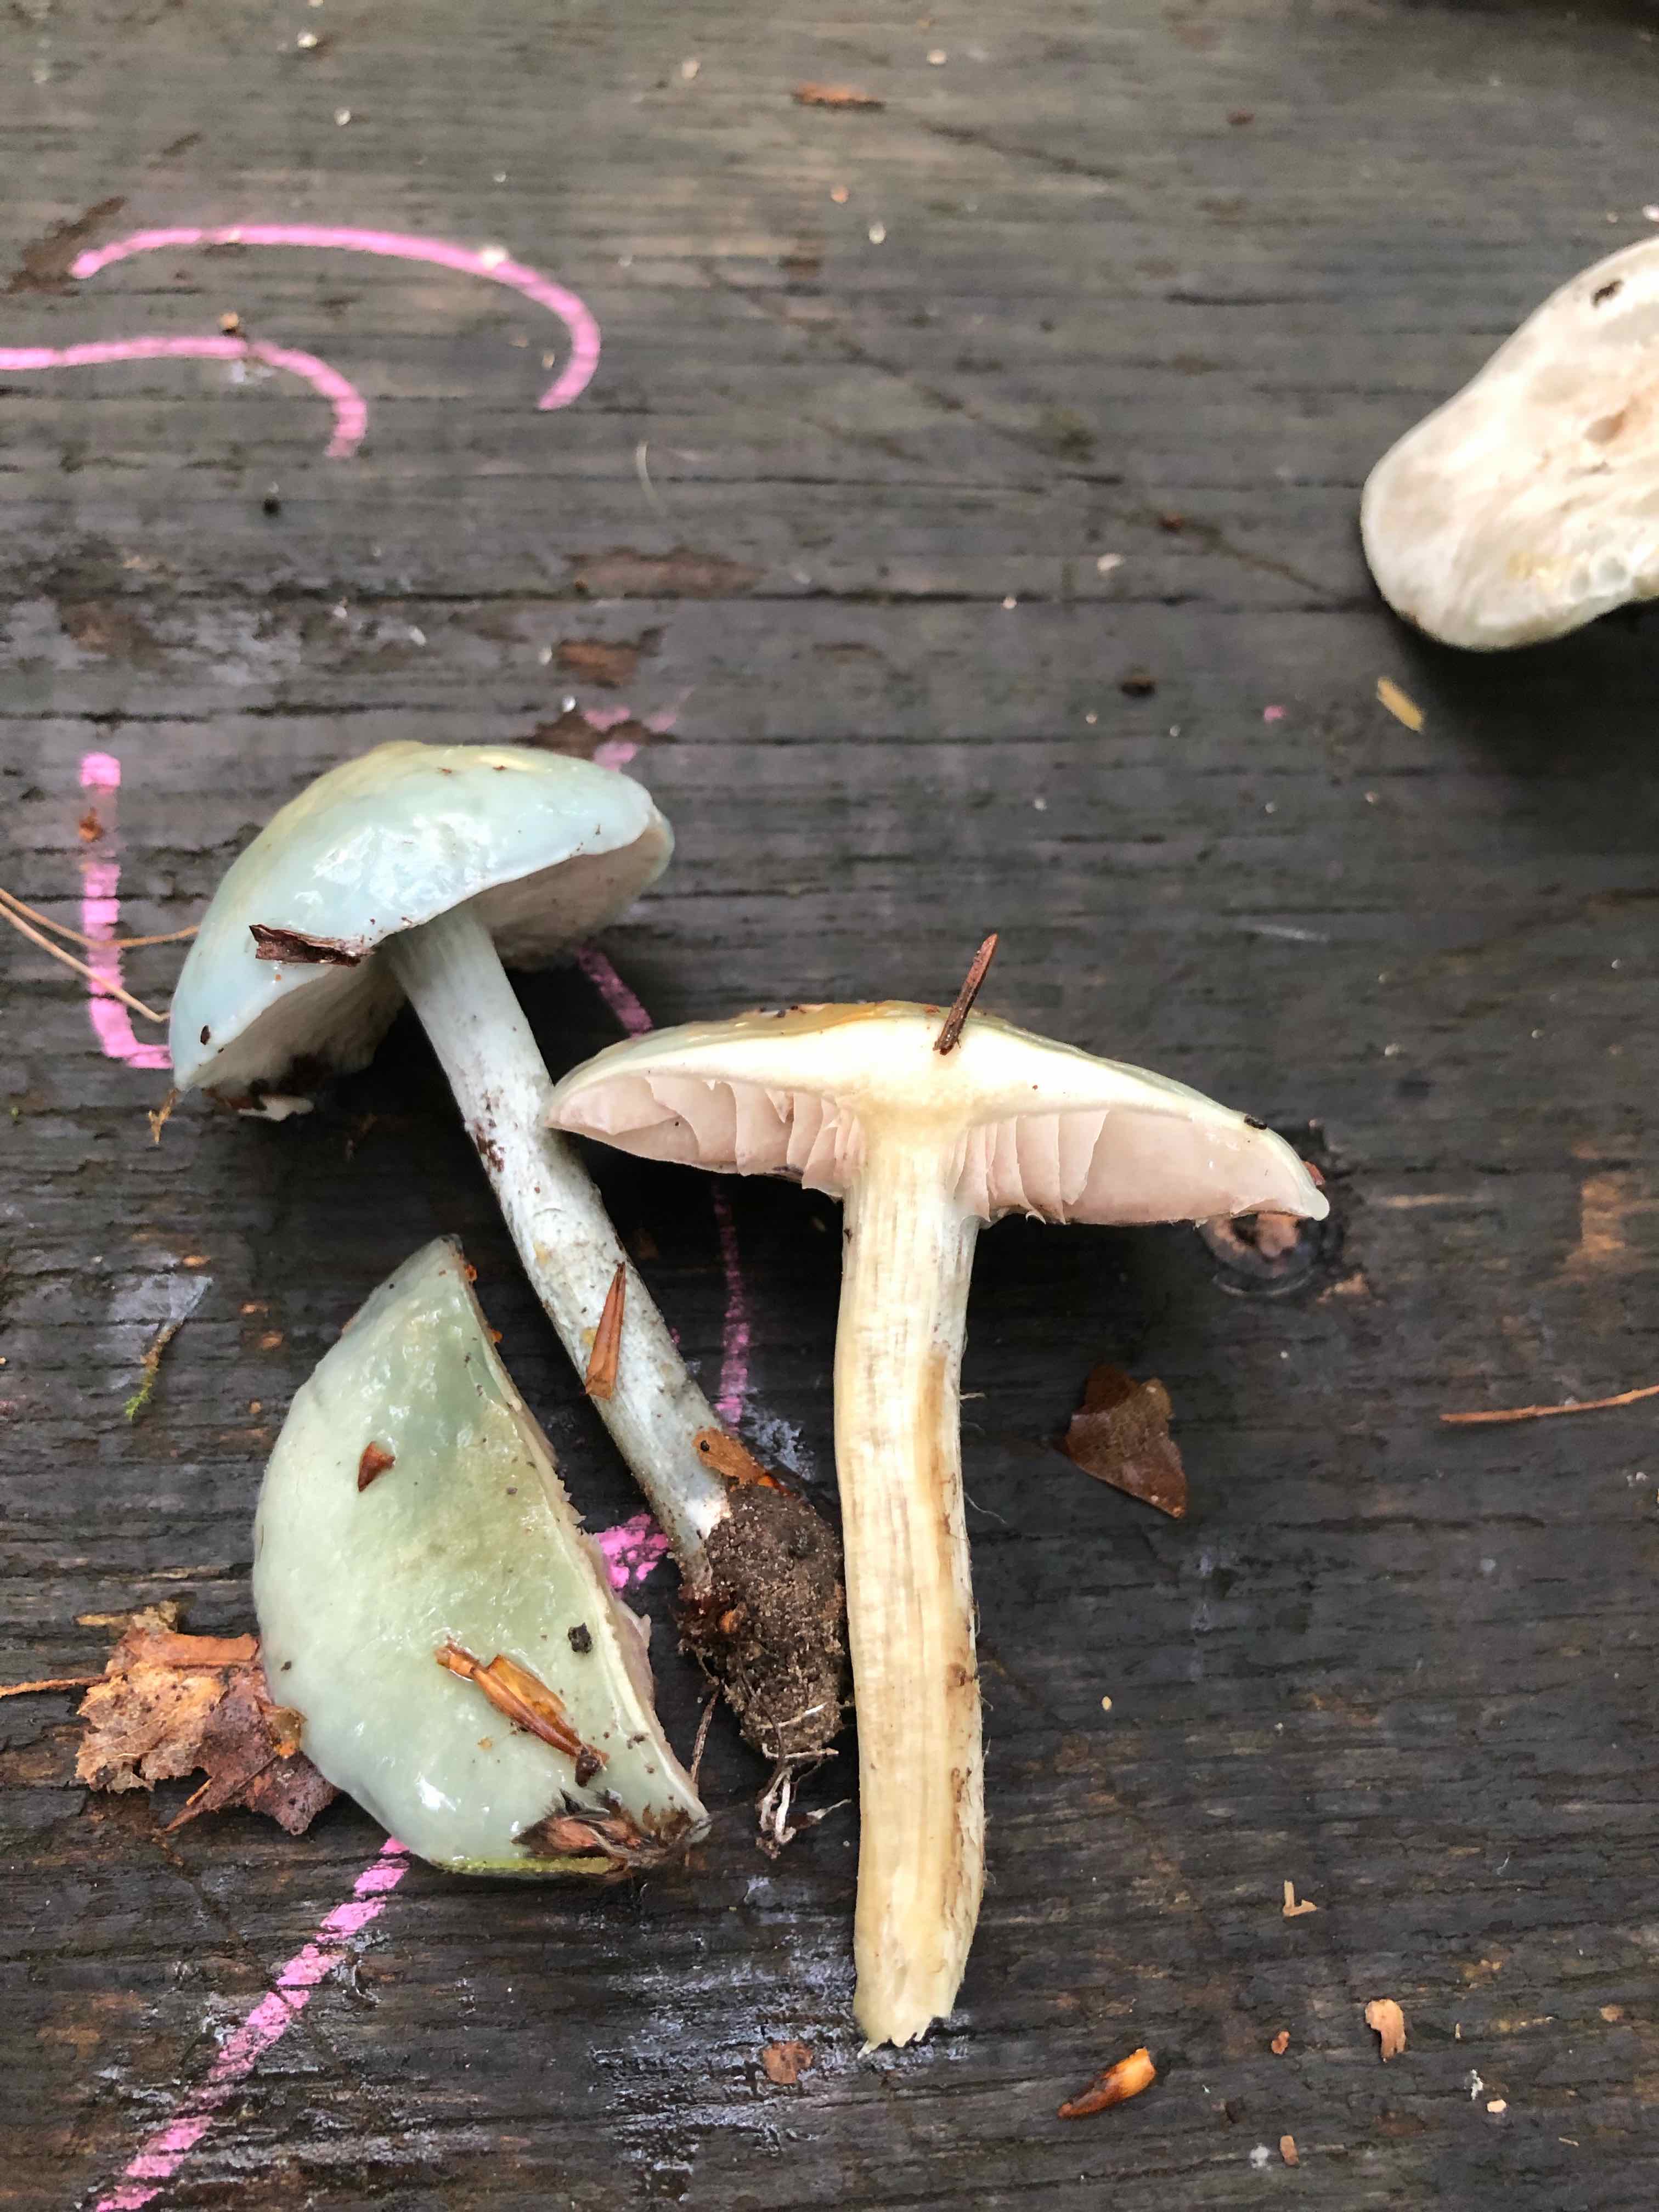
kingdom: Fungi
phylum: Basidiomycota
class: Agaricomycetes
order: Agaricales
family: Strophariaceae
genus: Stropharia
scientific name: Stropharia cyanea
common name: blågrøn bredblad
